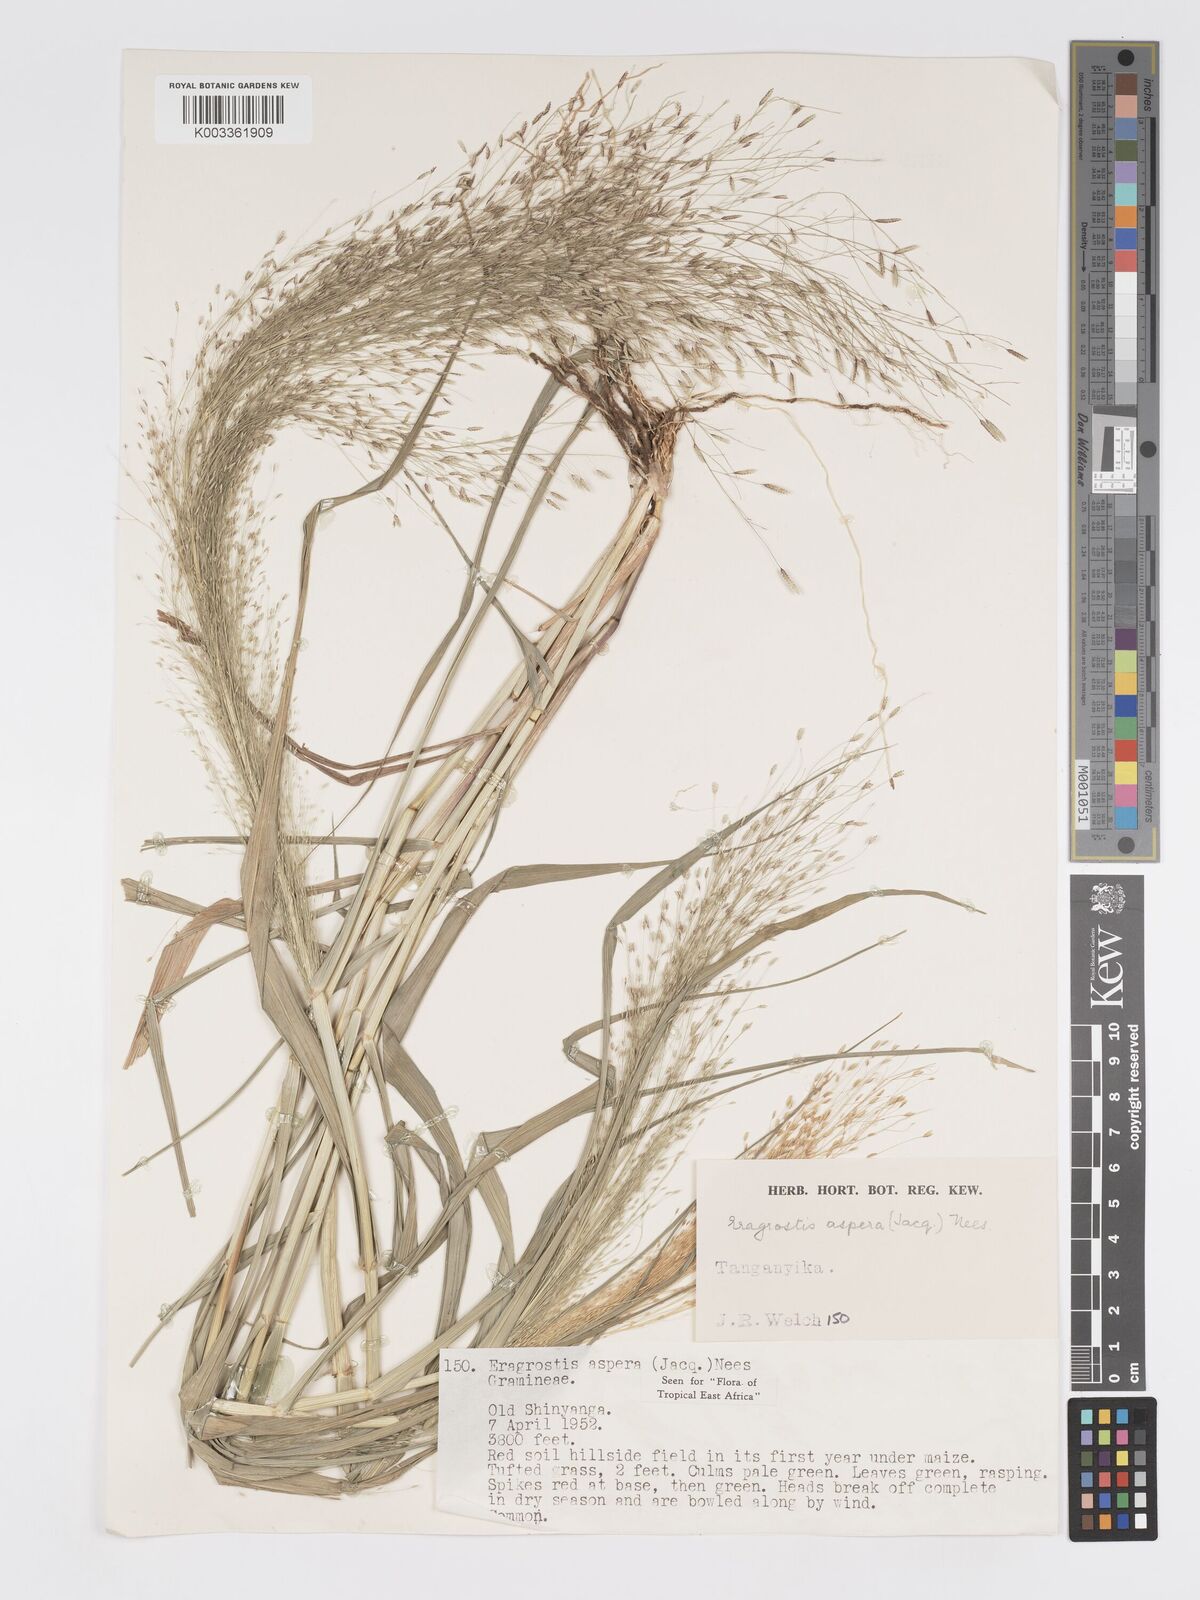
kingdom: Plantae
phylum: Tracheophyta
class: Liliopsida
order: Poales
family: Poaceae
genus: Eragrostis
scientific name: Eragrostis aspera
